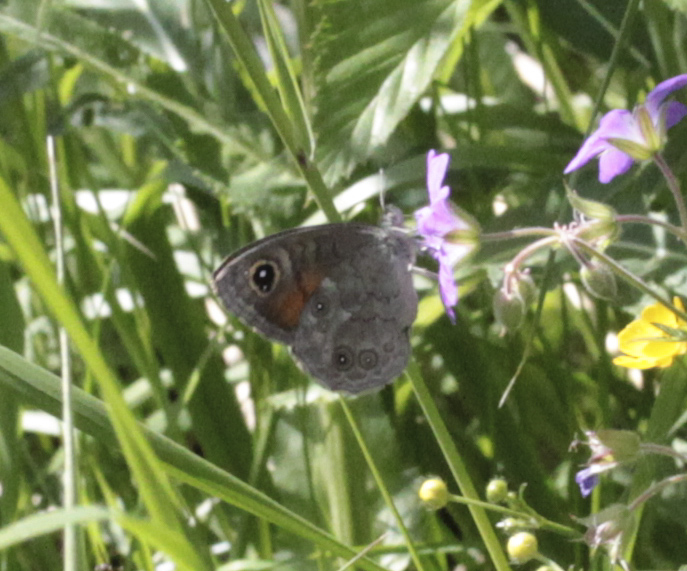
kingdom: Animalia
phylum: Arthropoda
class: Insecta
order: Lepidoptera
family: Nymphalidae
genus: Pararge
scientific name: Pararge petropolitana
